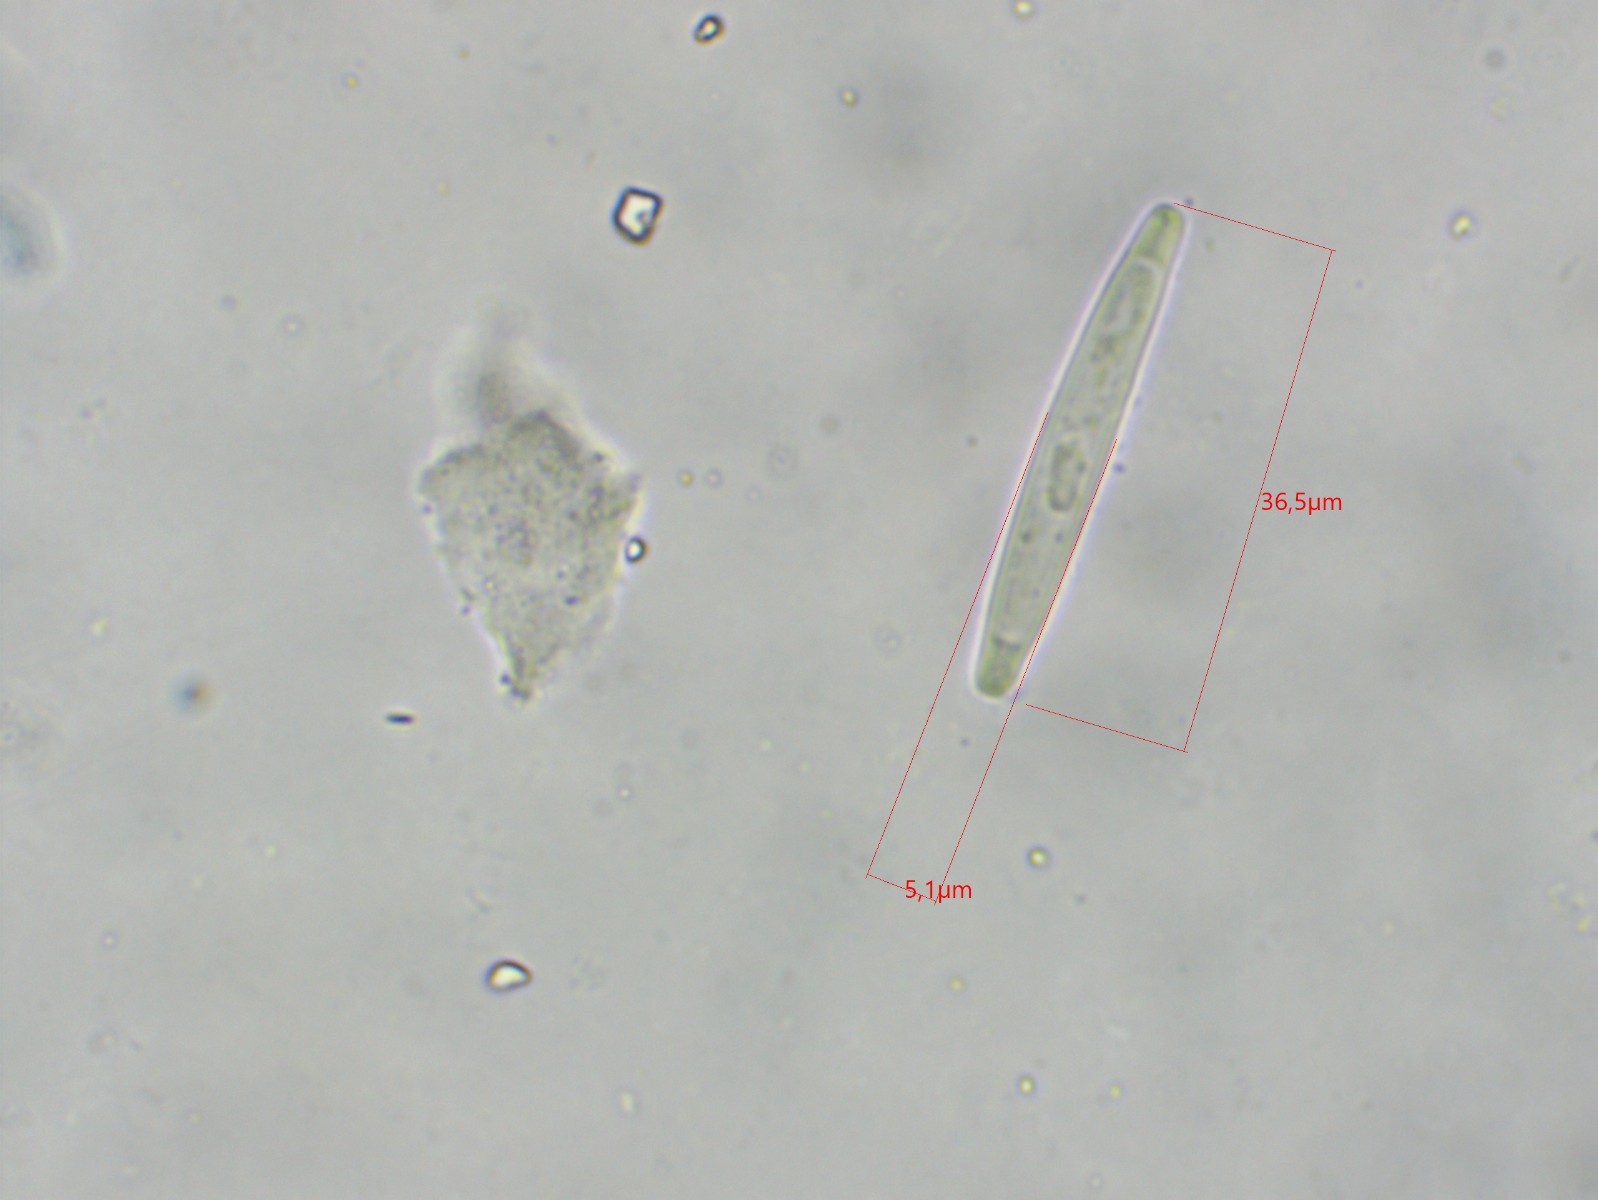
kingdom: Fungi
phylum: Ascomycota
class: Sordariomycetes
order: Hypocreales
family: Ophiocordycipitaceae
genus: Tolypocladium
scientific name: Tolypocladium longisegmentatum
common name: kanadisk snyltekølle
